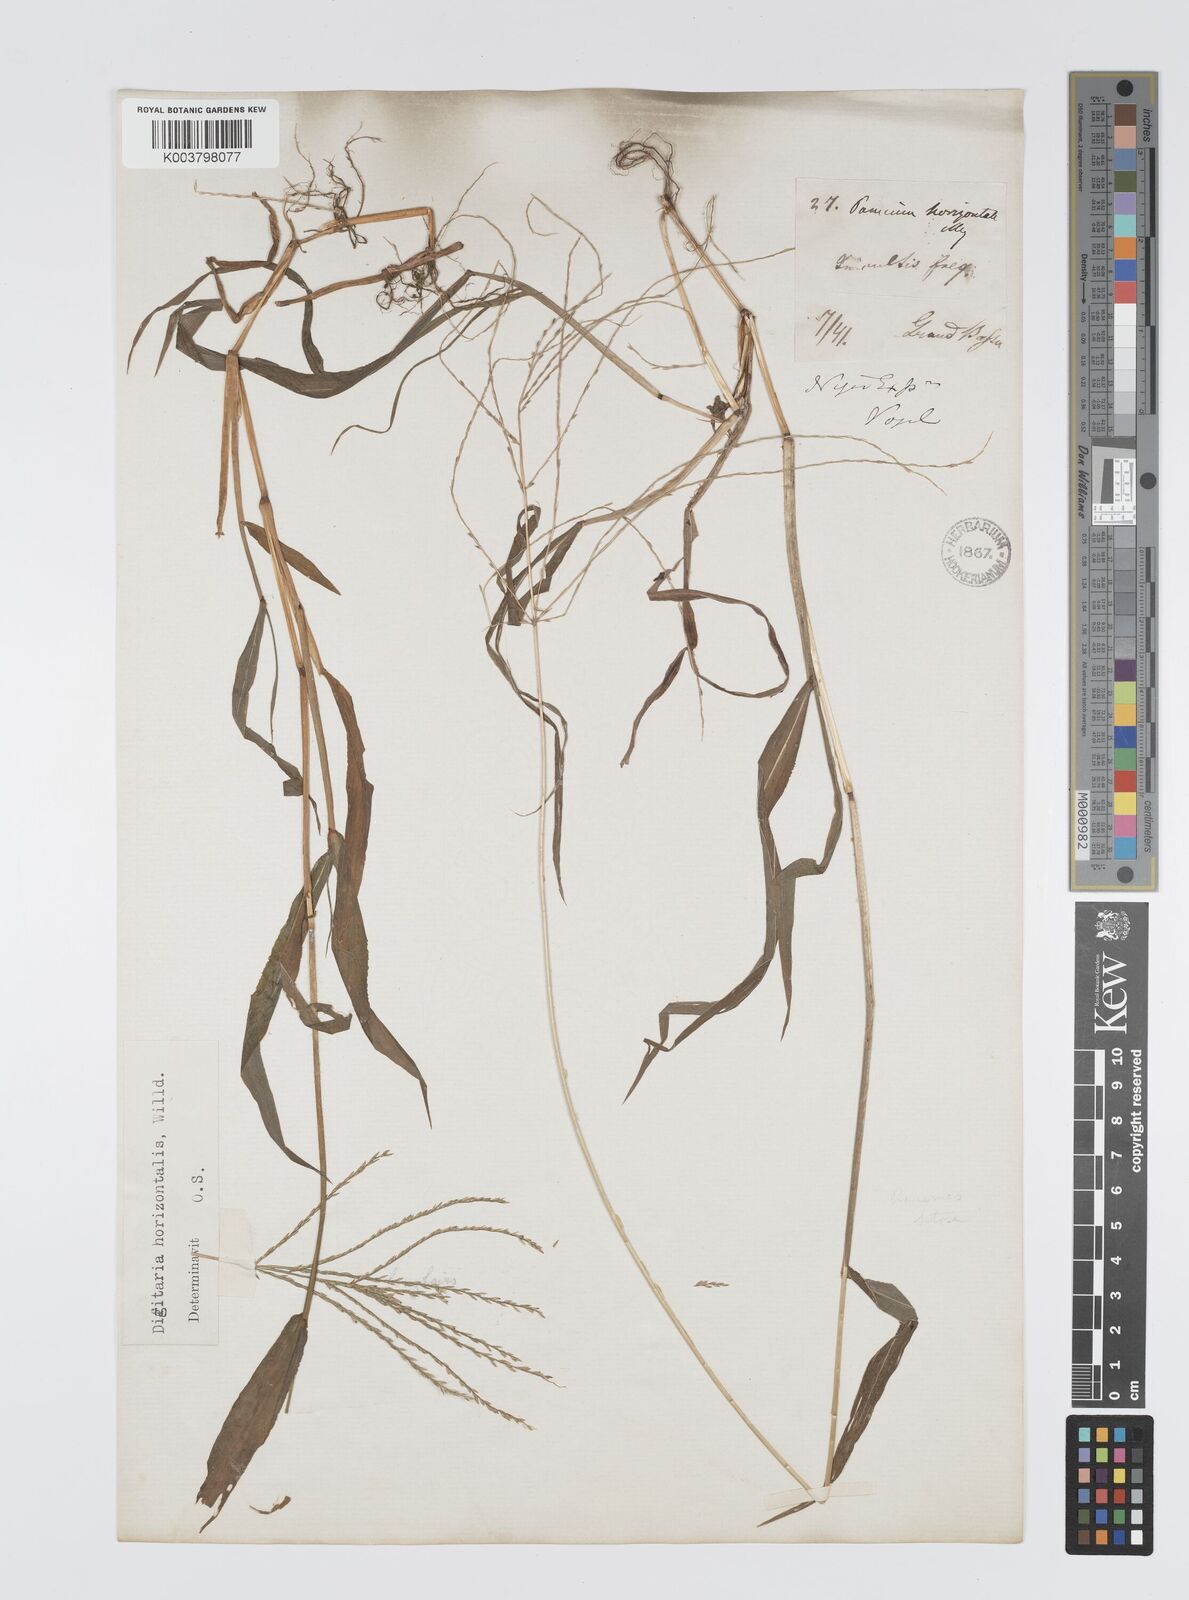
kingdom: Plantae
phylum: Tracheophyta
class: Liliopsida
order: Poales
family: Poaceae
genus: Digitaria
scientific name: Digitaria horizontalis
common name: Jamaican crabgrass
